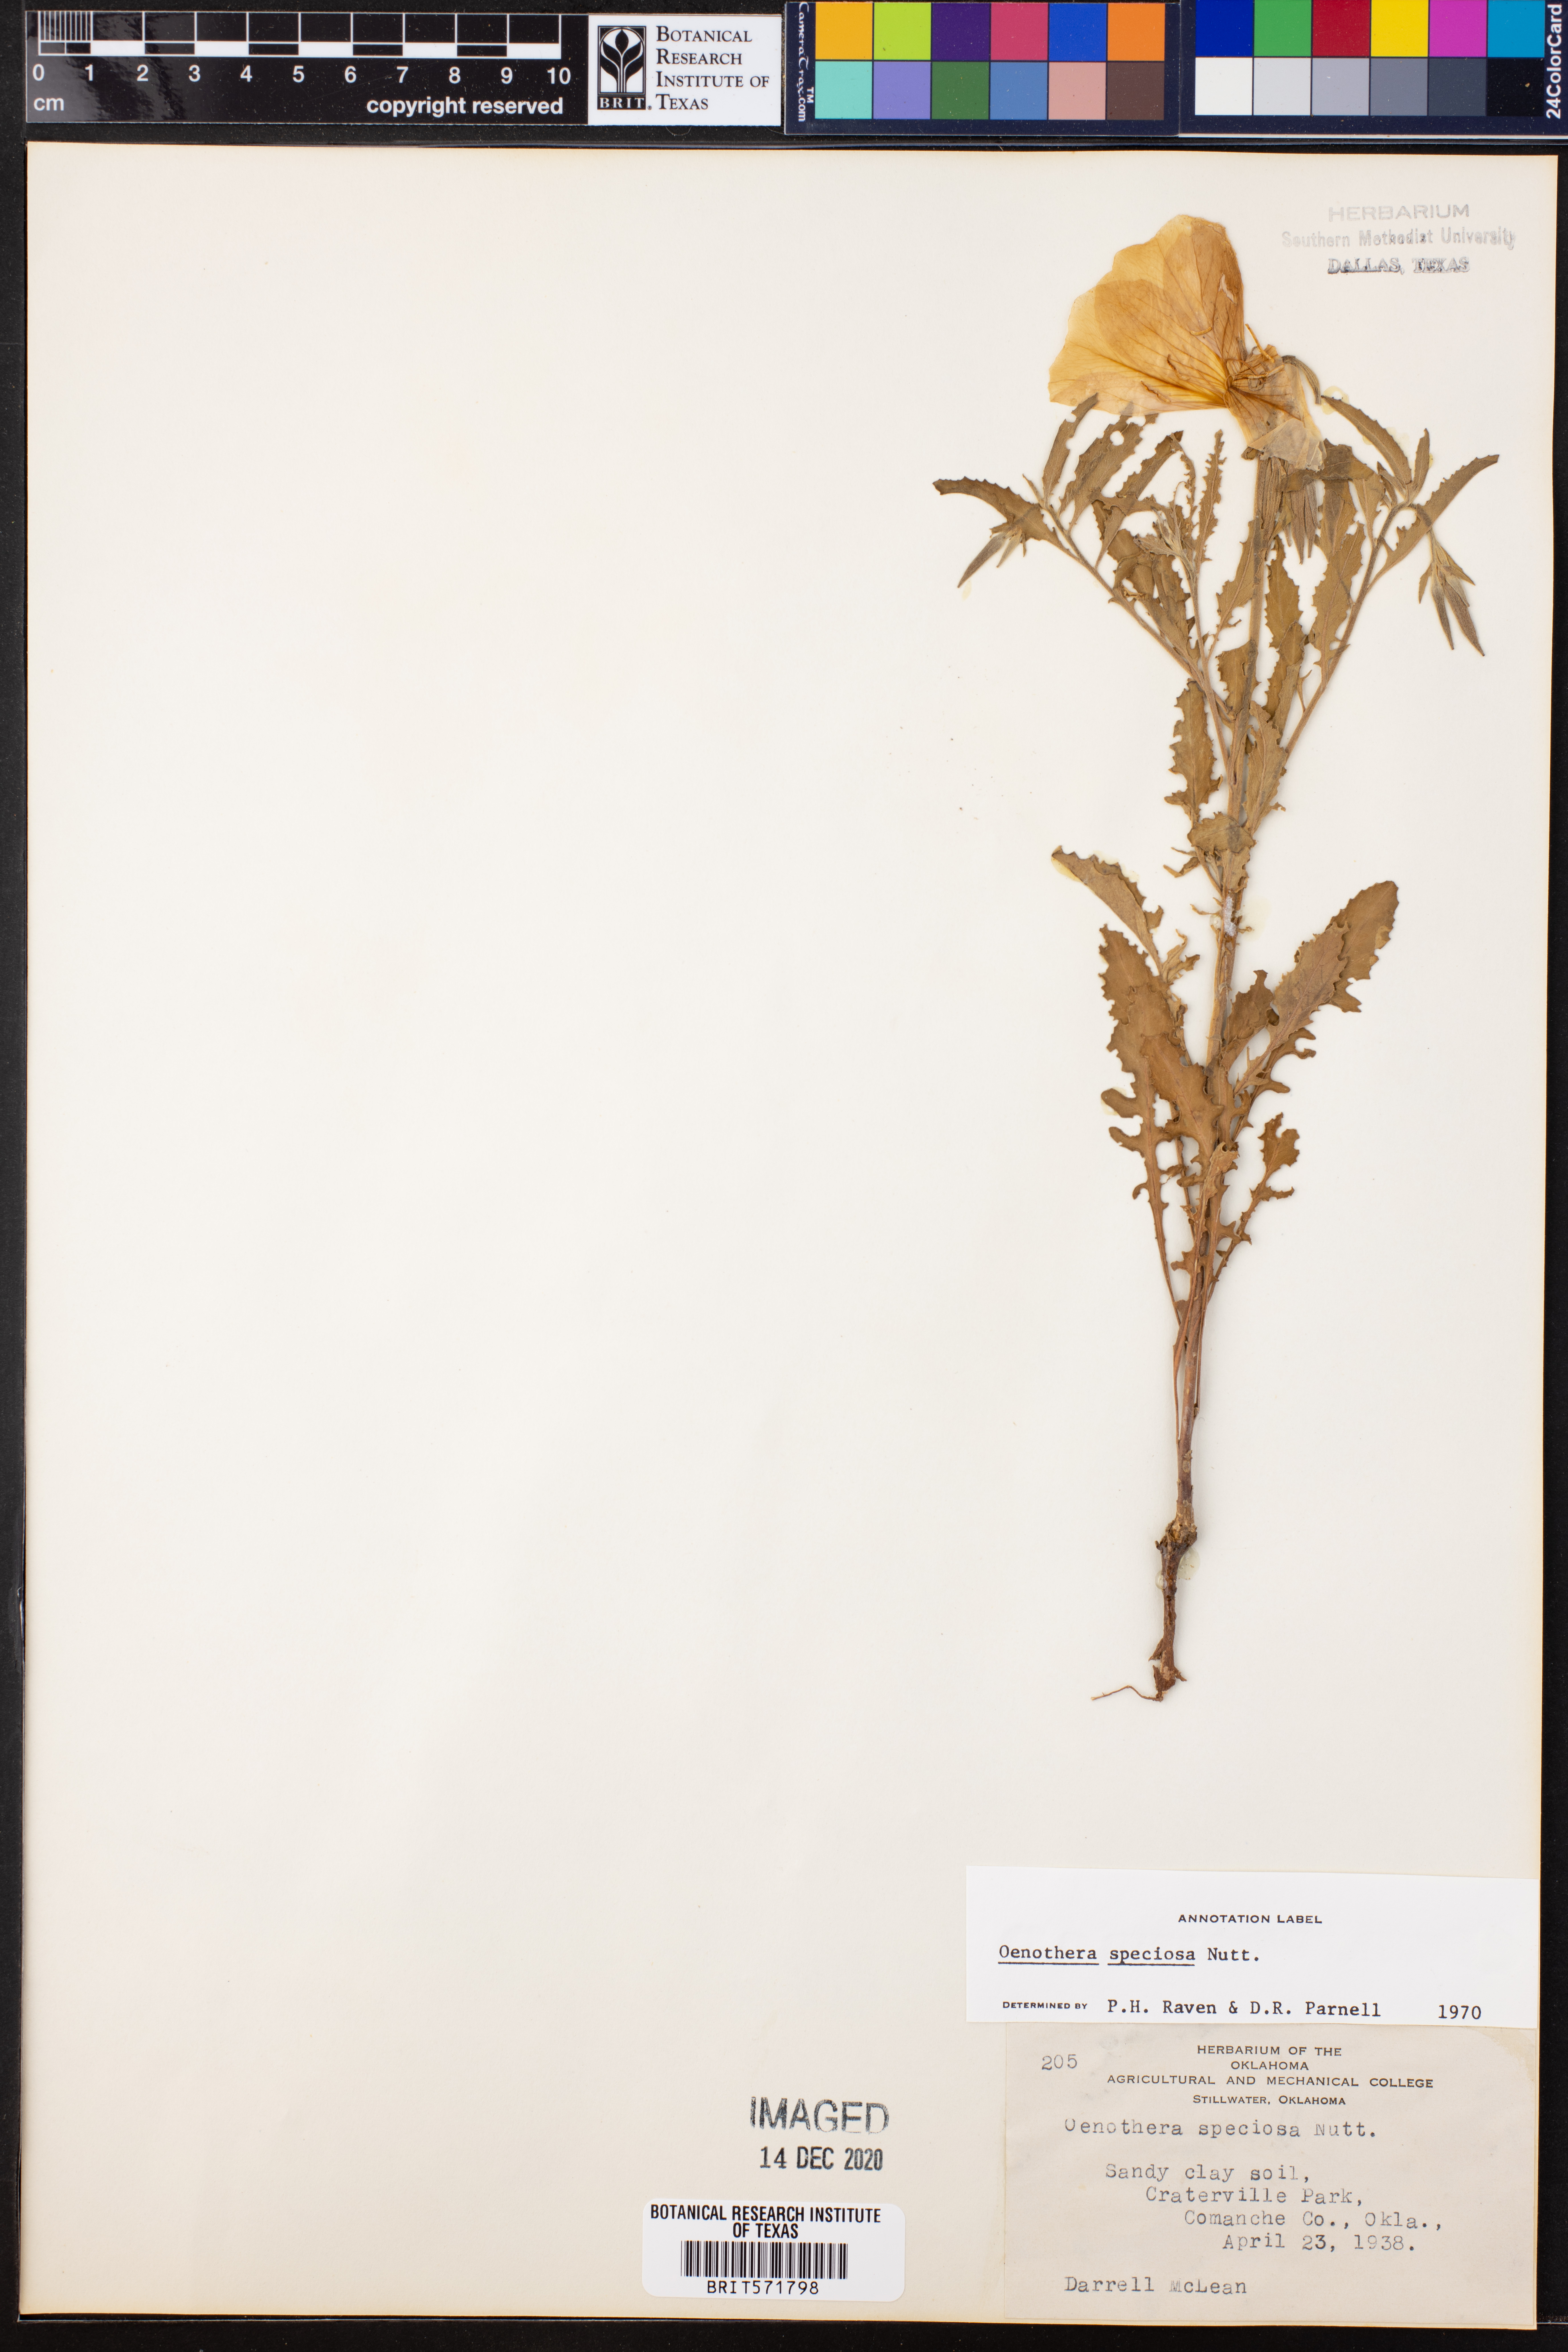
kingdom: Plantae
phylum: Tracheophyta
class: Magnoliopsida
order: Myrtales
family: Onagraceae
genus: Oenothera
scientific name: Oenothera speciosa
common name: White evening-primrose
